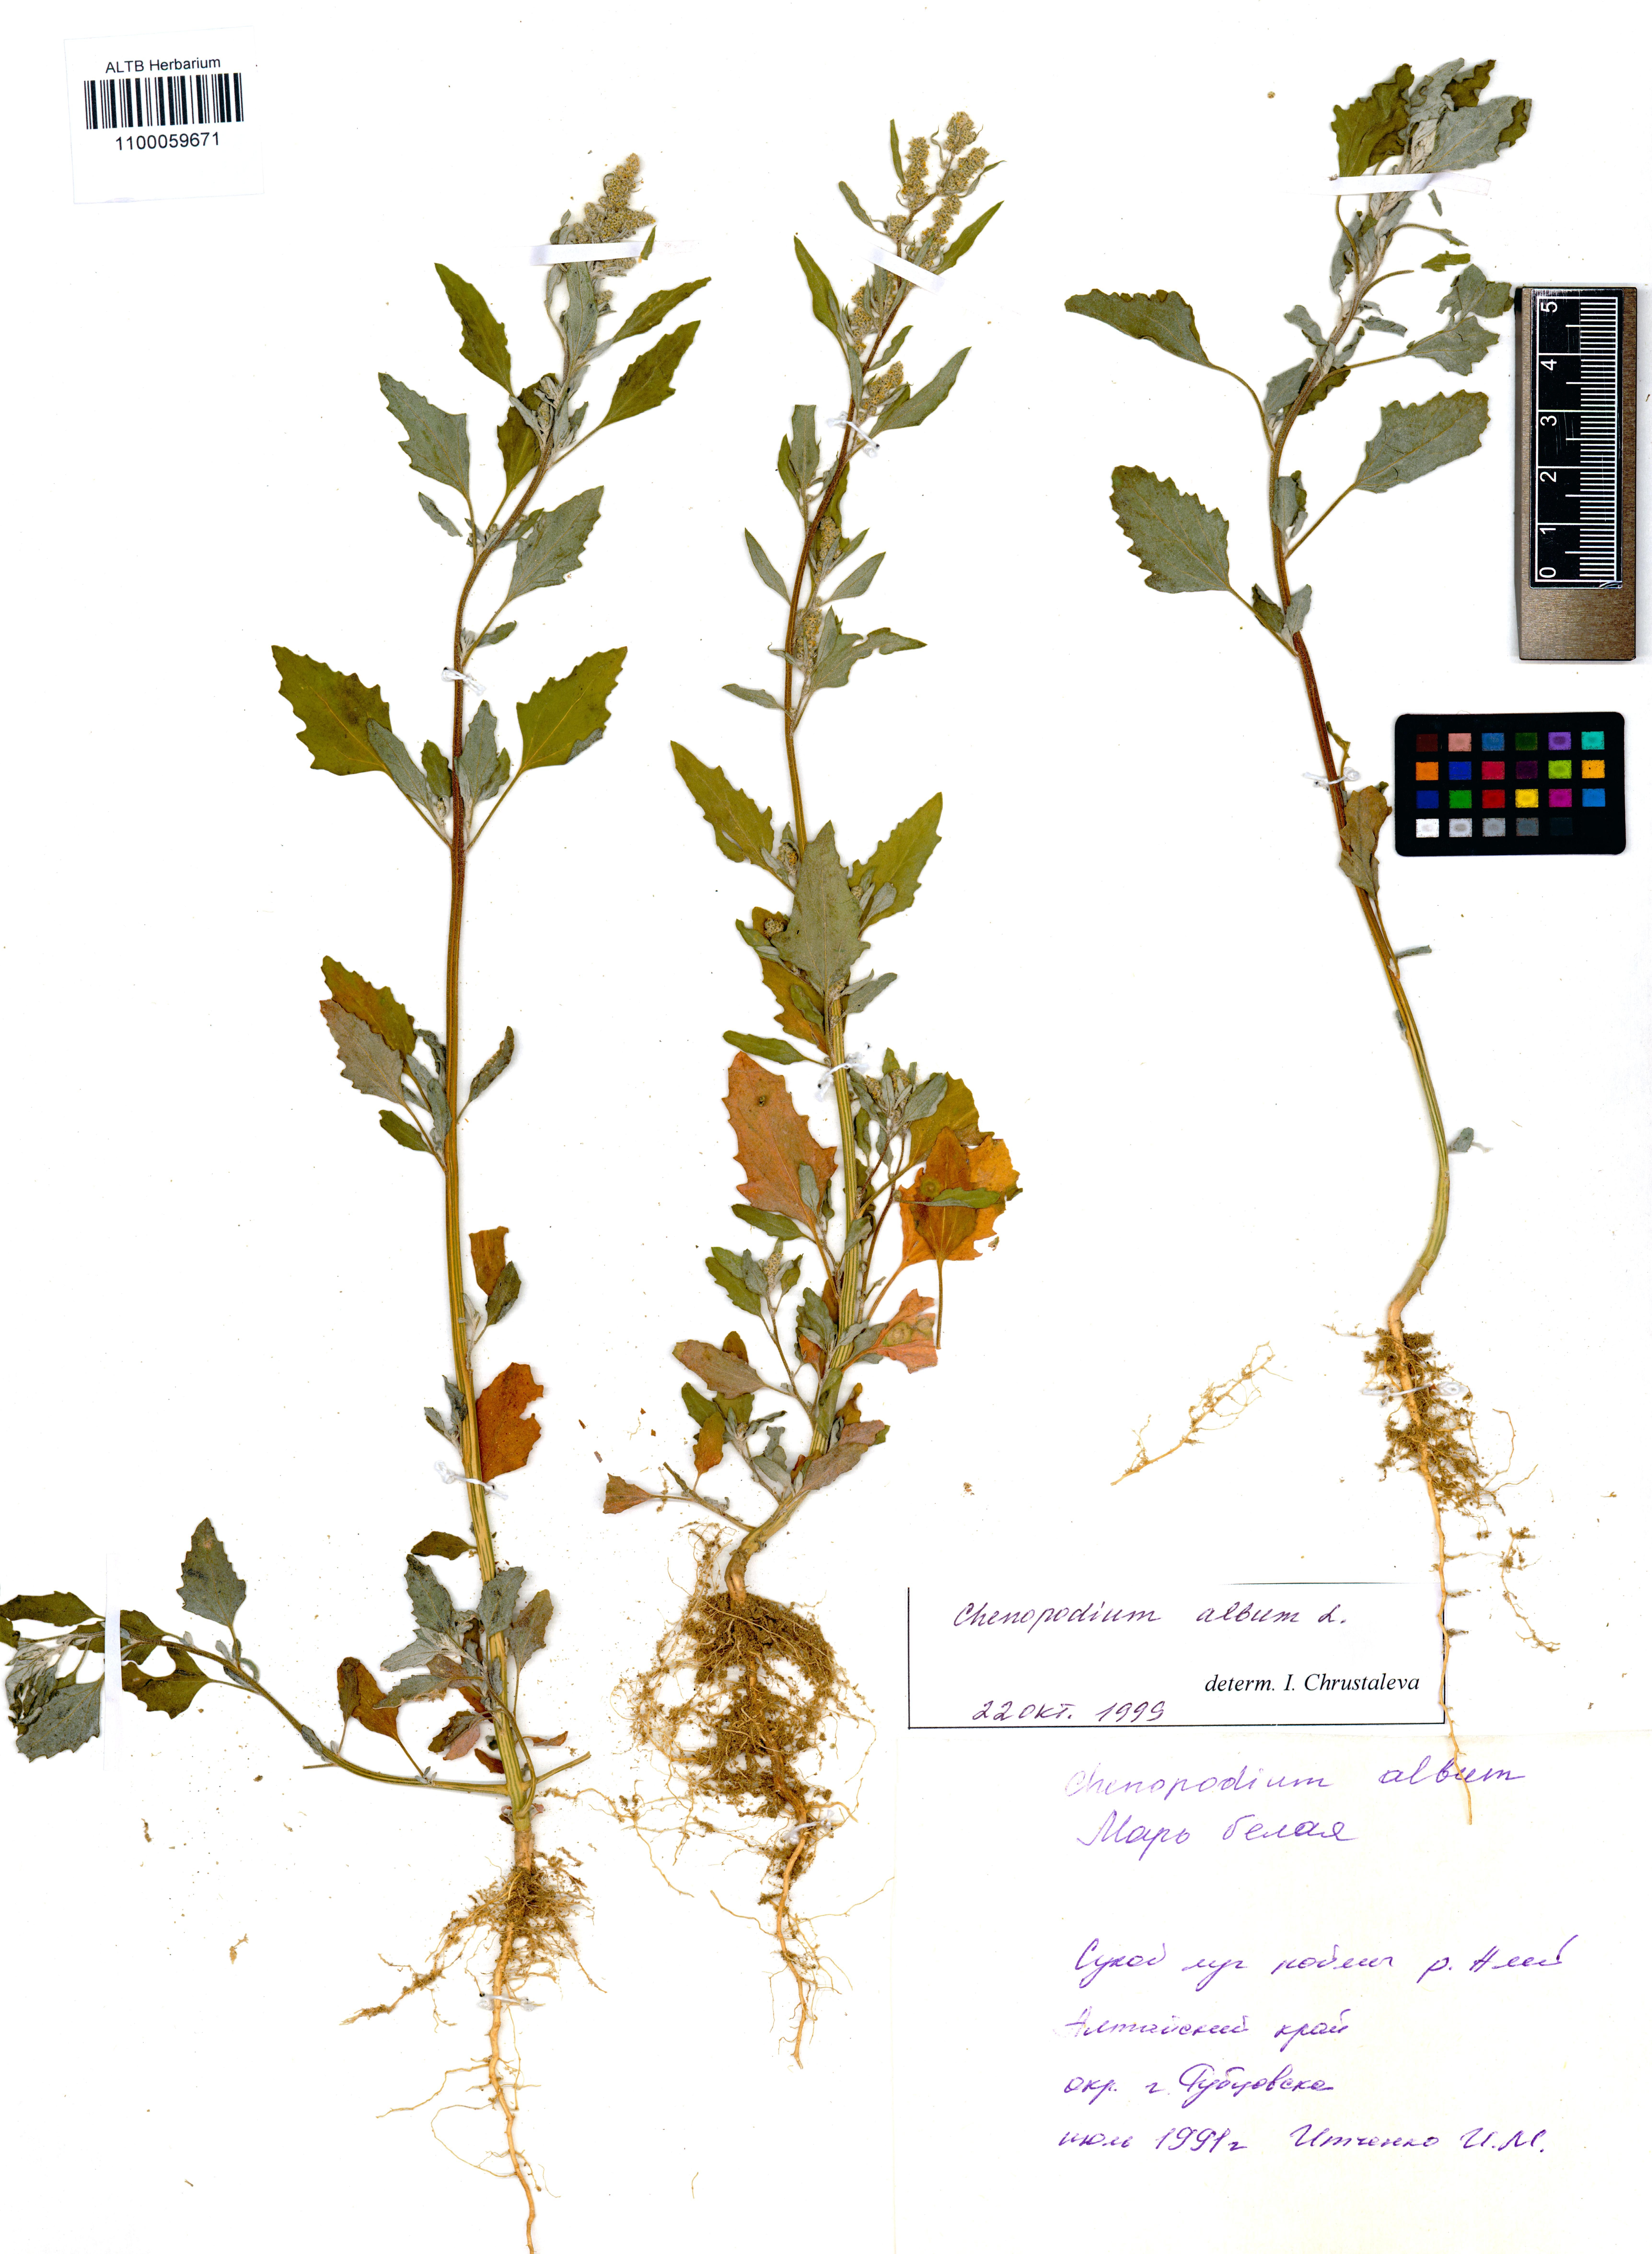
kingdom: Plantae
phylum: Tracheophyta
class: Magnoliopsida
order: Caryophyllales
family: Amaranthaceae
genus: Chenopodium
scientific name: Chenopodium album
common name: Fat-hen
